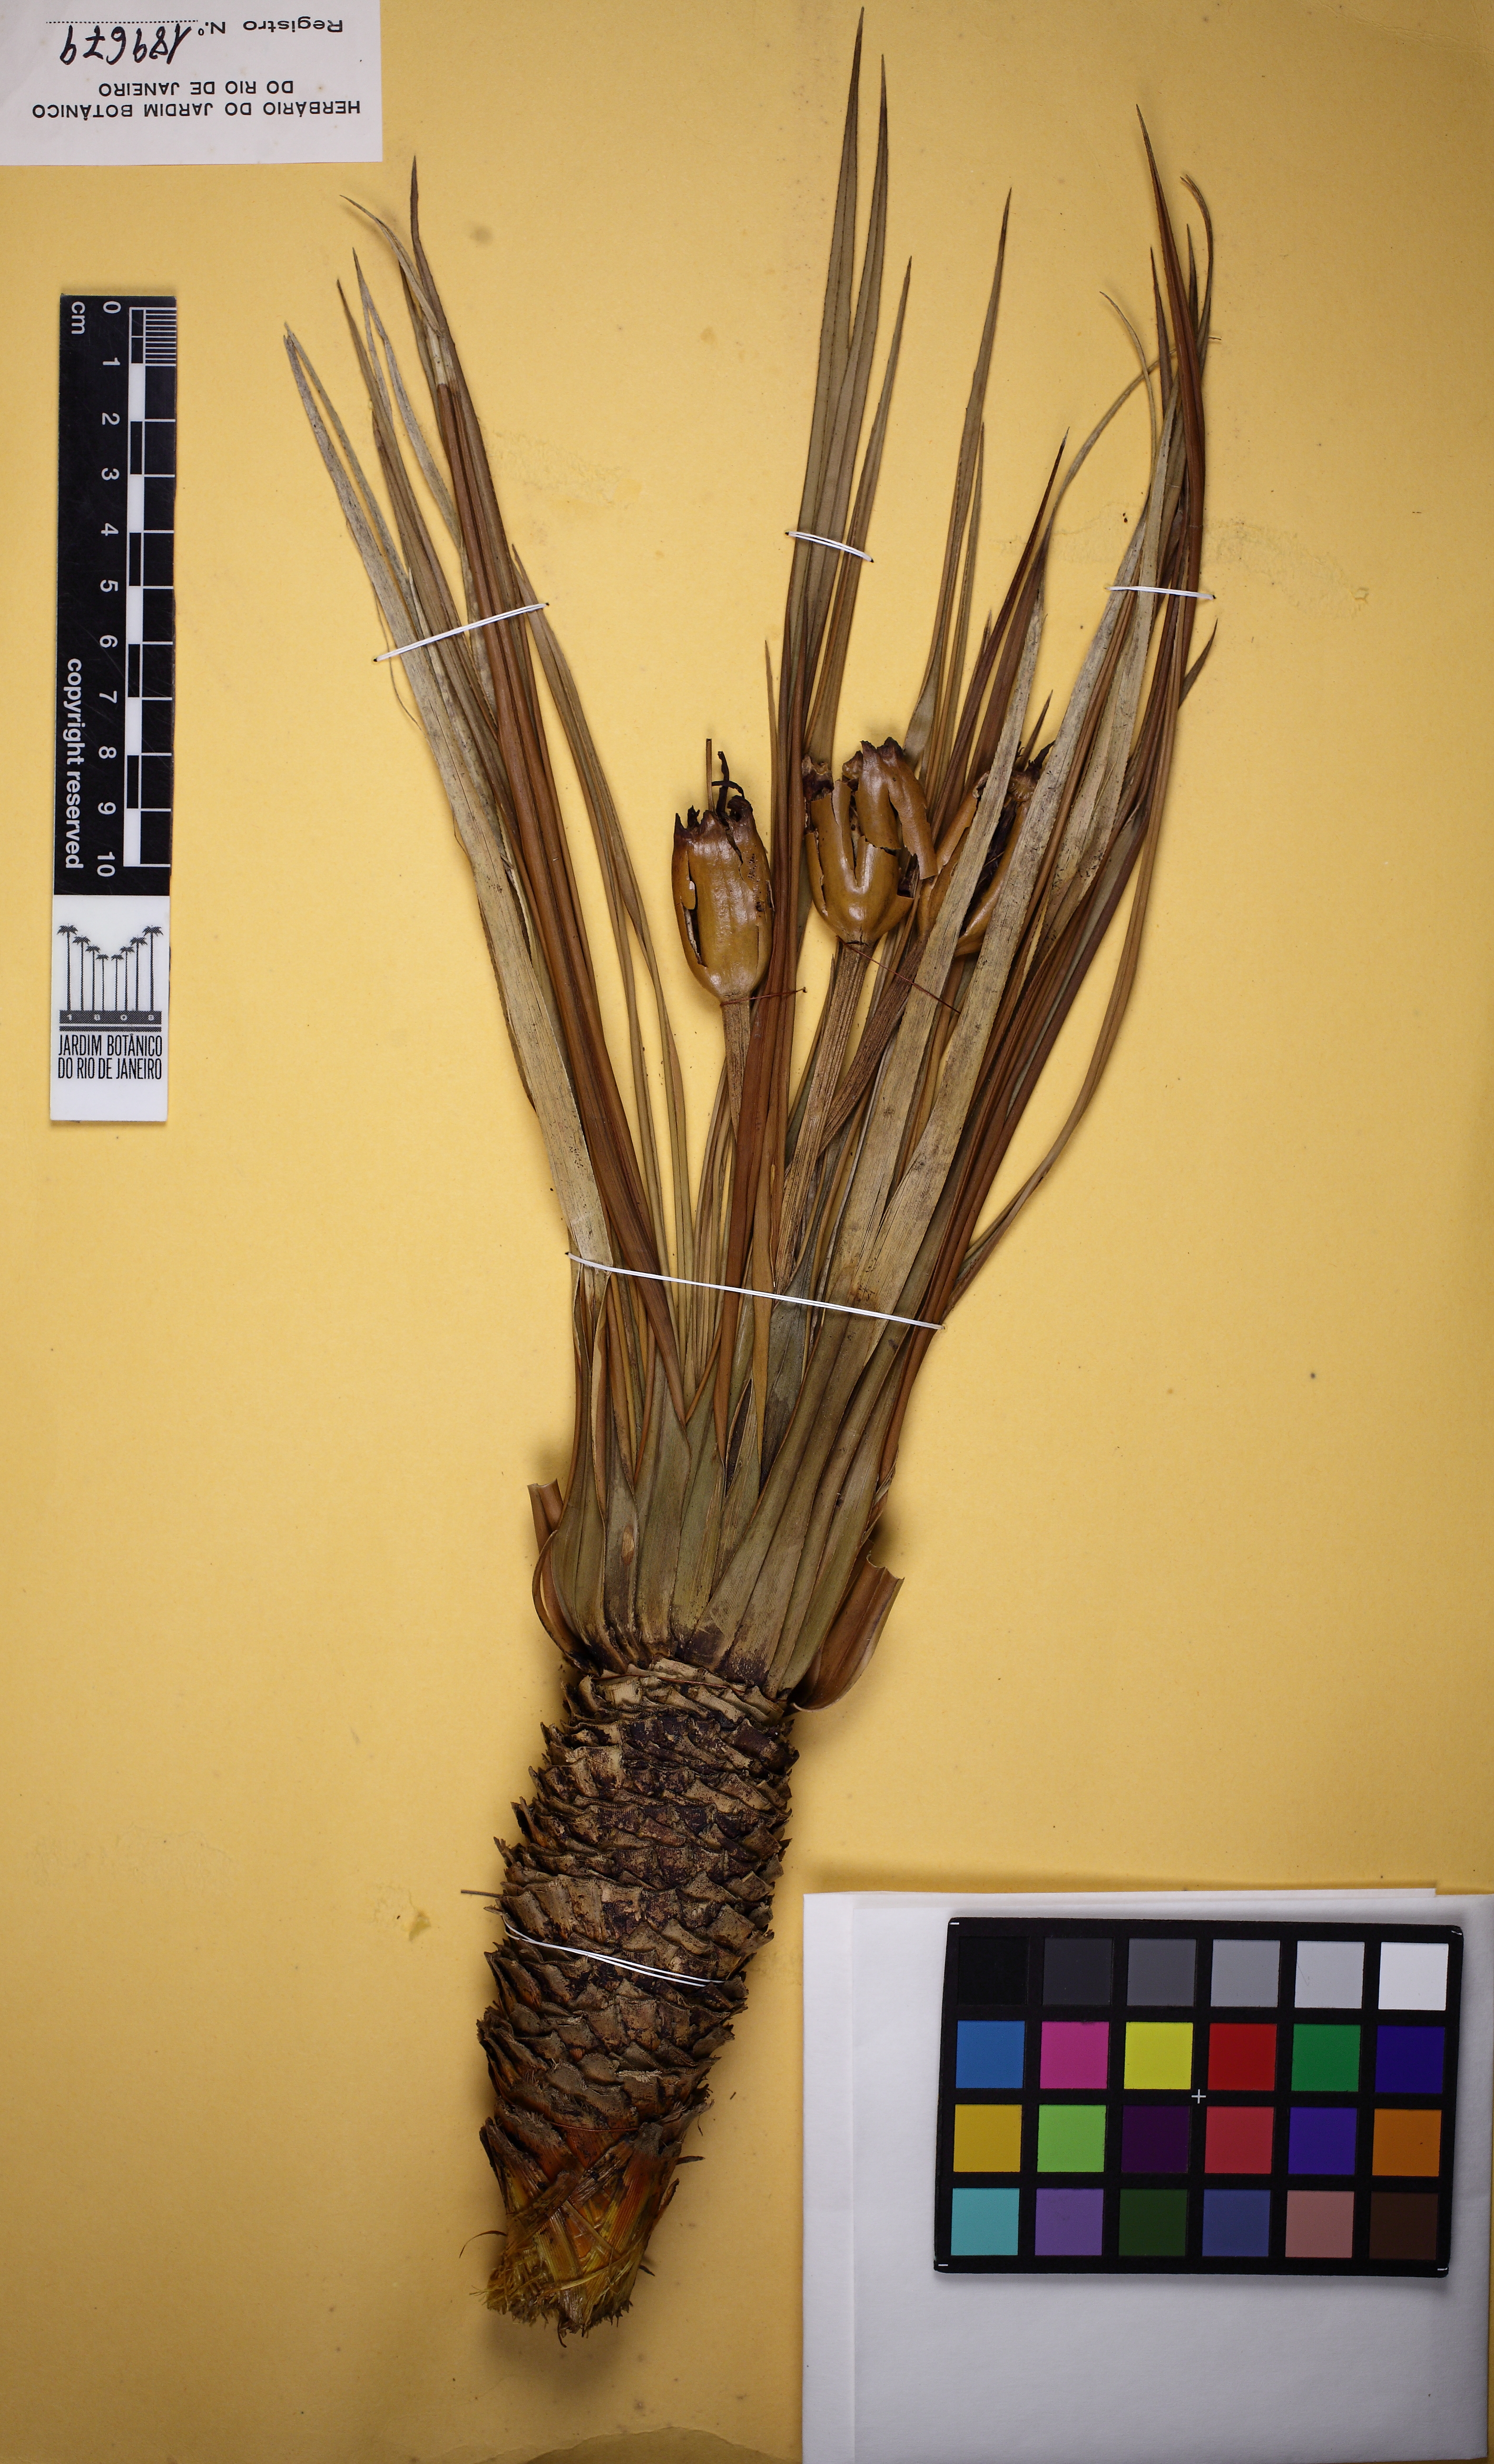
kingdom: Plantae
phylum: Tracheophyta
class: Liliopsida
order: Pandanales
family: Velloziaceae
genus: Vellozia
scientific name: Vellozia gigantea
